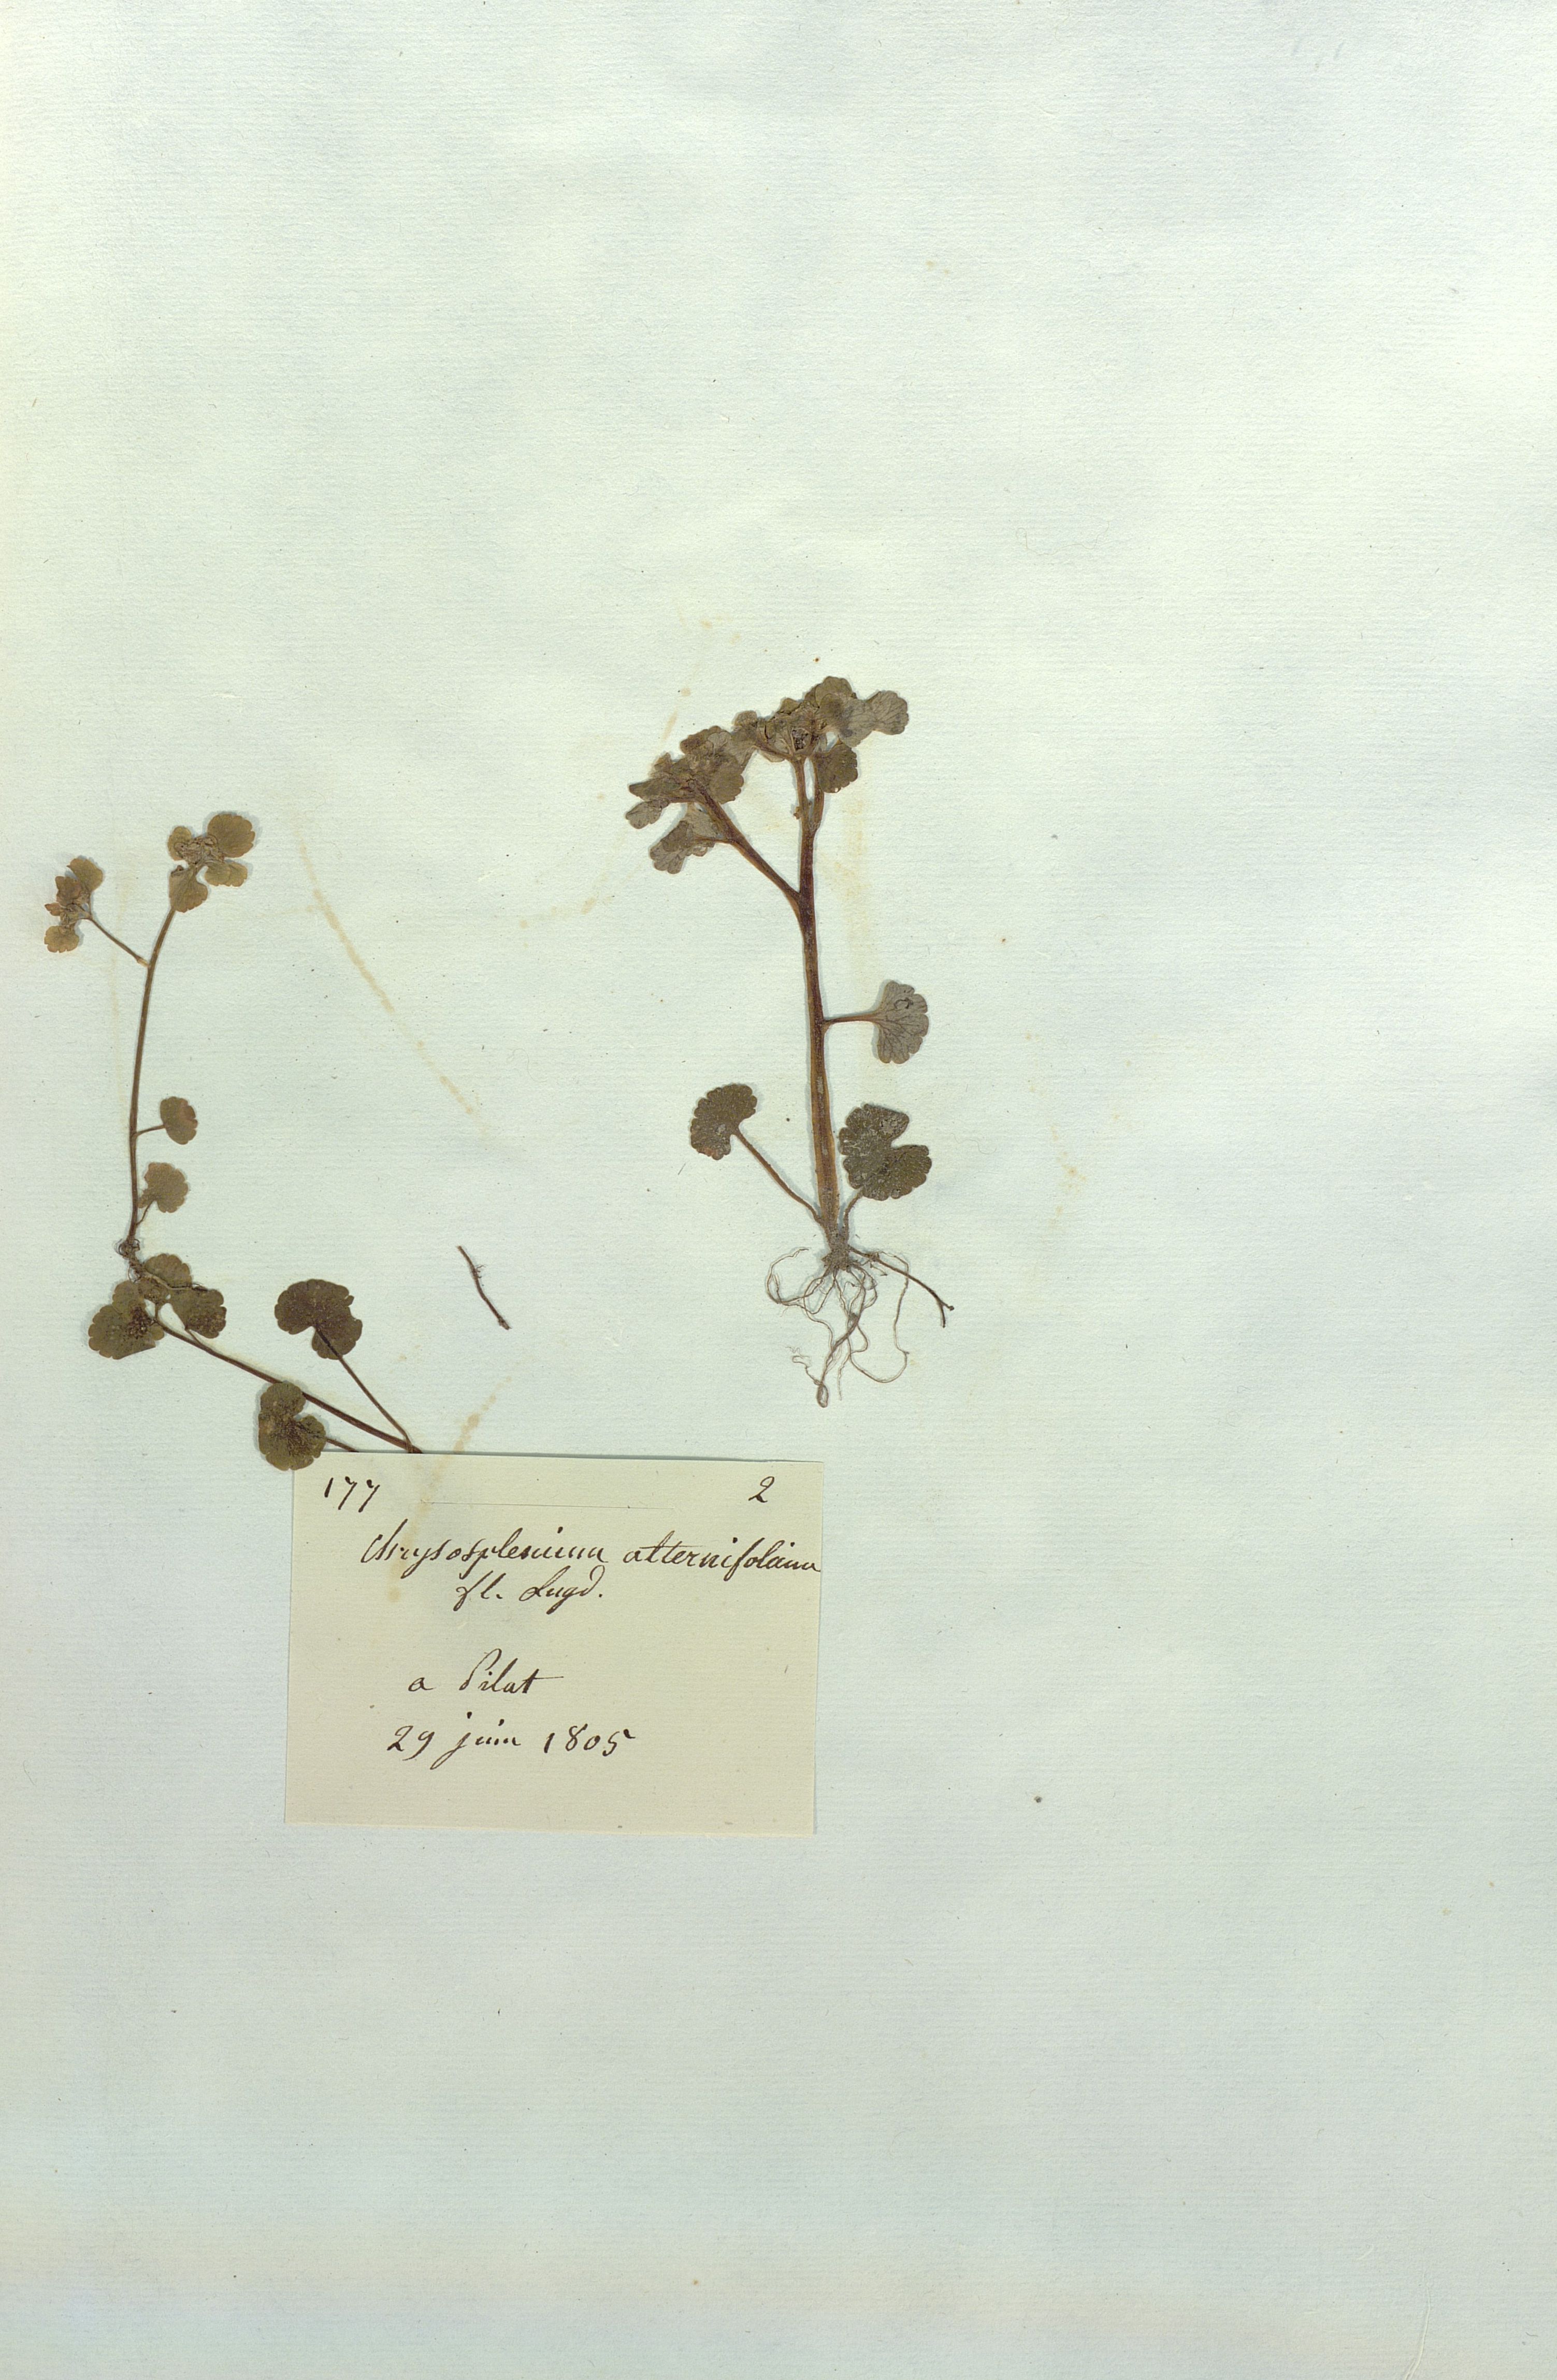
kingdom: Plantae
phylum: Tracheophyta
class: Magnoliopsida
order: Saxifragales
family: Saxifragaceae
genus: Chrysosplenium
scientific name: Chrysosplenium alternifolium
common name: Alternate-leaved golden-saxifrage
